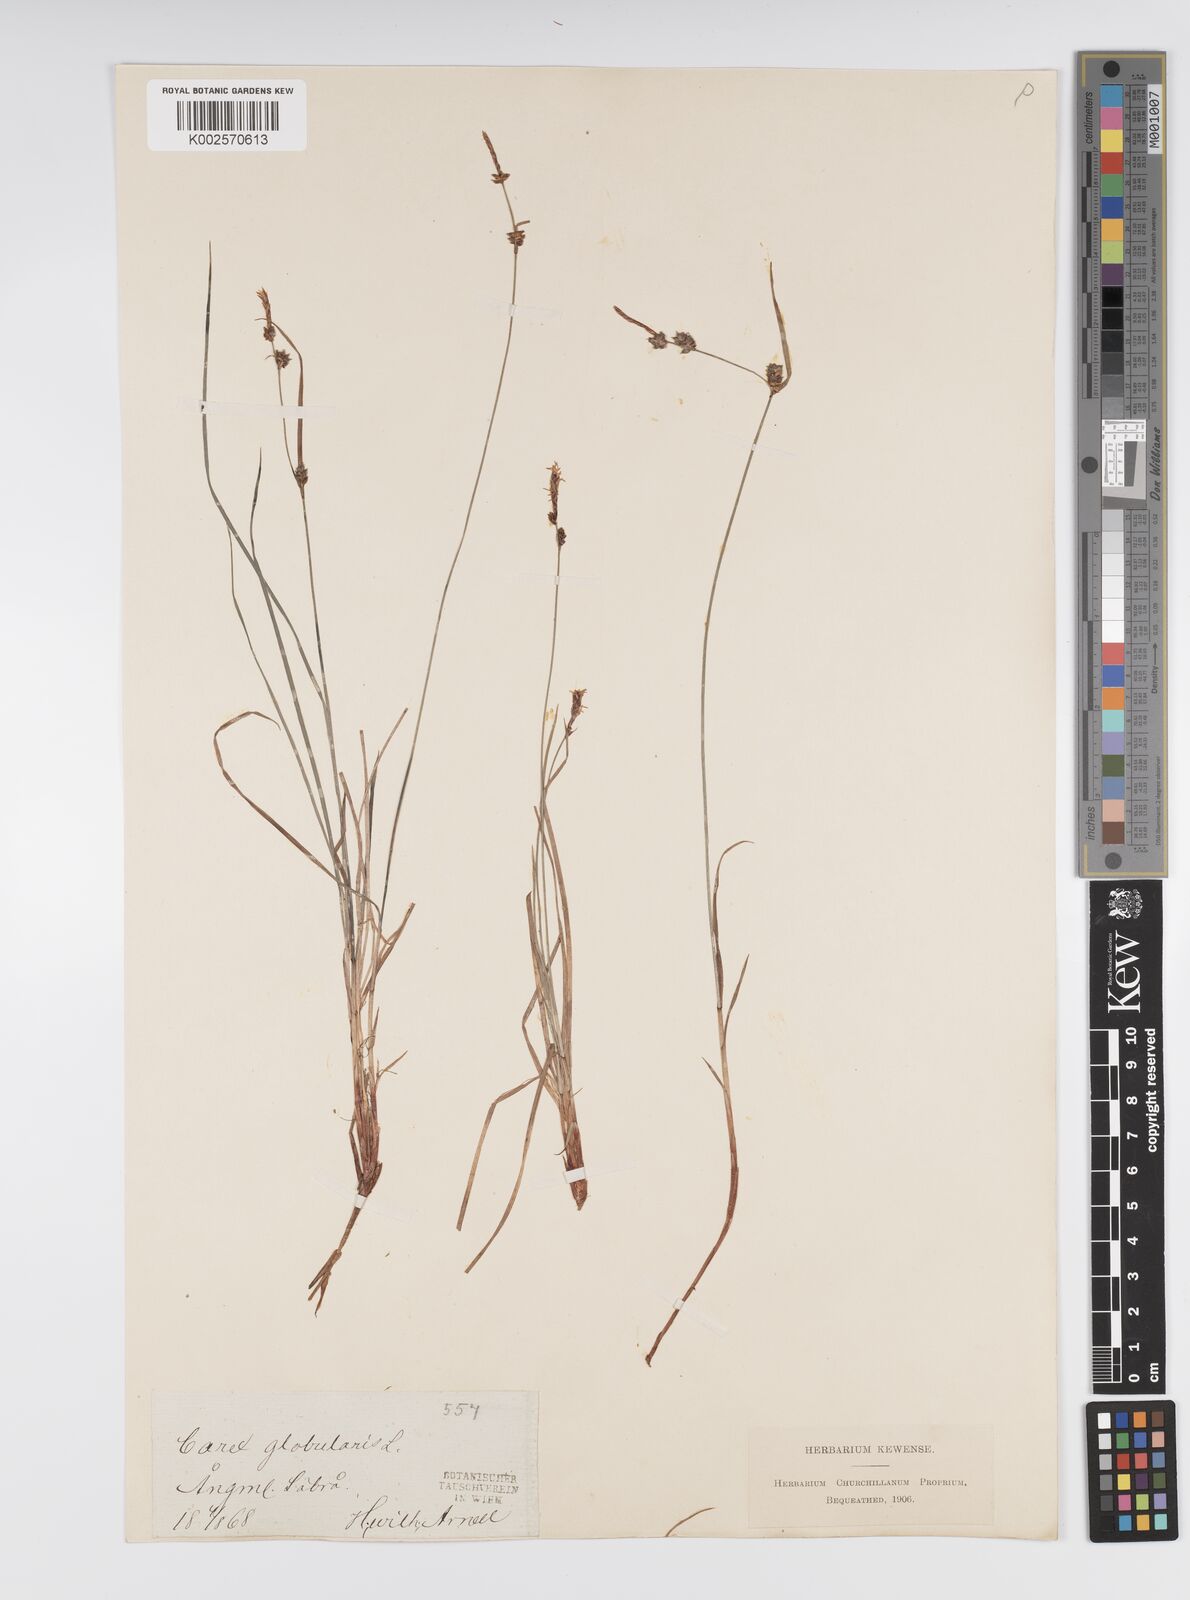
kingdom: Plantae
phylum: Tracheophyta
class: Liliopsida
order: Poales
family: Cyperaceae
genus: Carex
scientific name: Carex globularis
